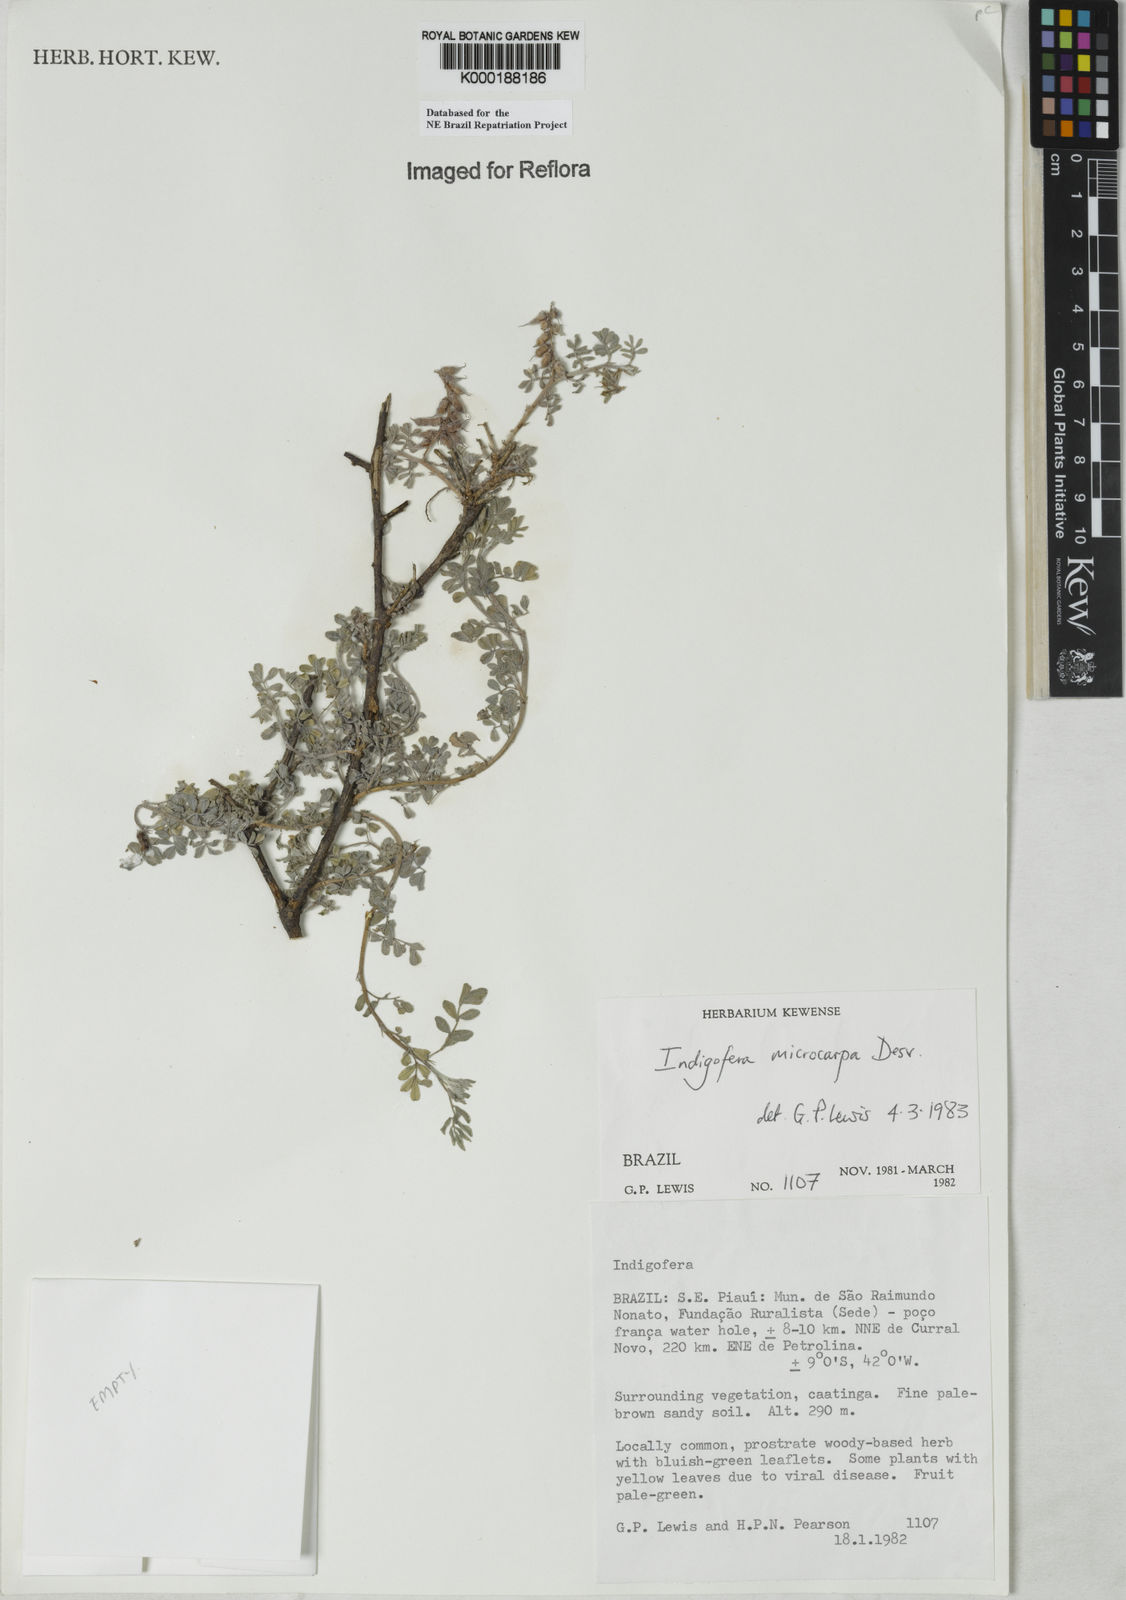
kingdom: Plantae
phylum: Tracheophyta
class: Magnoliopsida
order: Fabales
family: Fabaceae
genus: Indigofera
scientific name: Indigofera microcarpa
